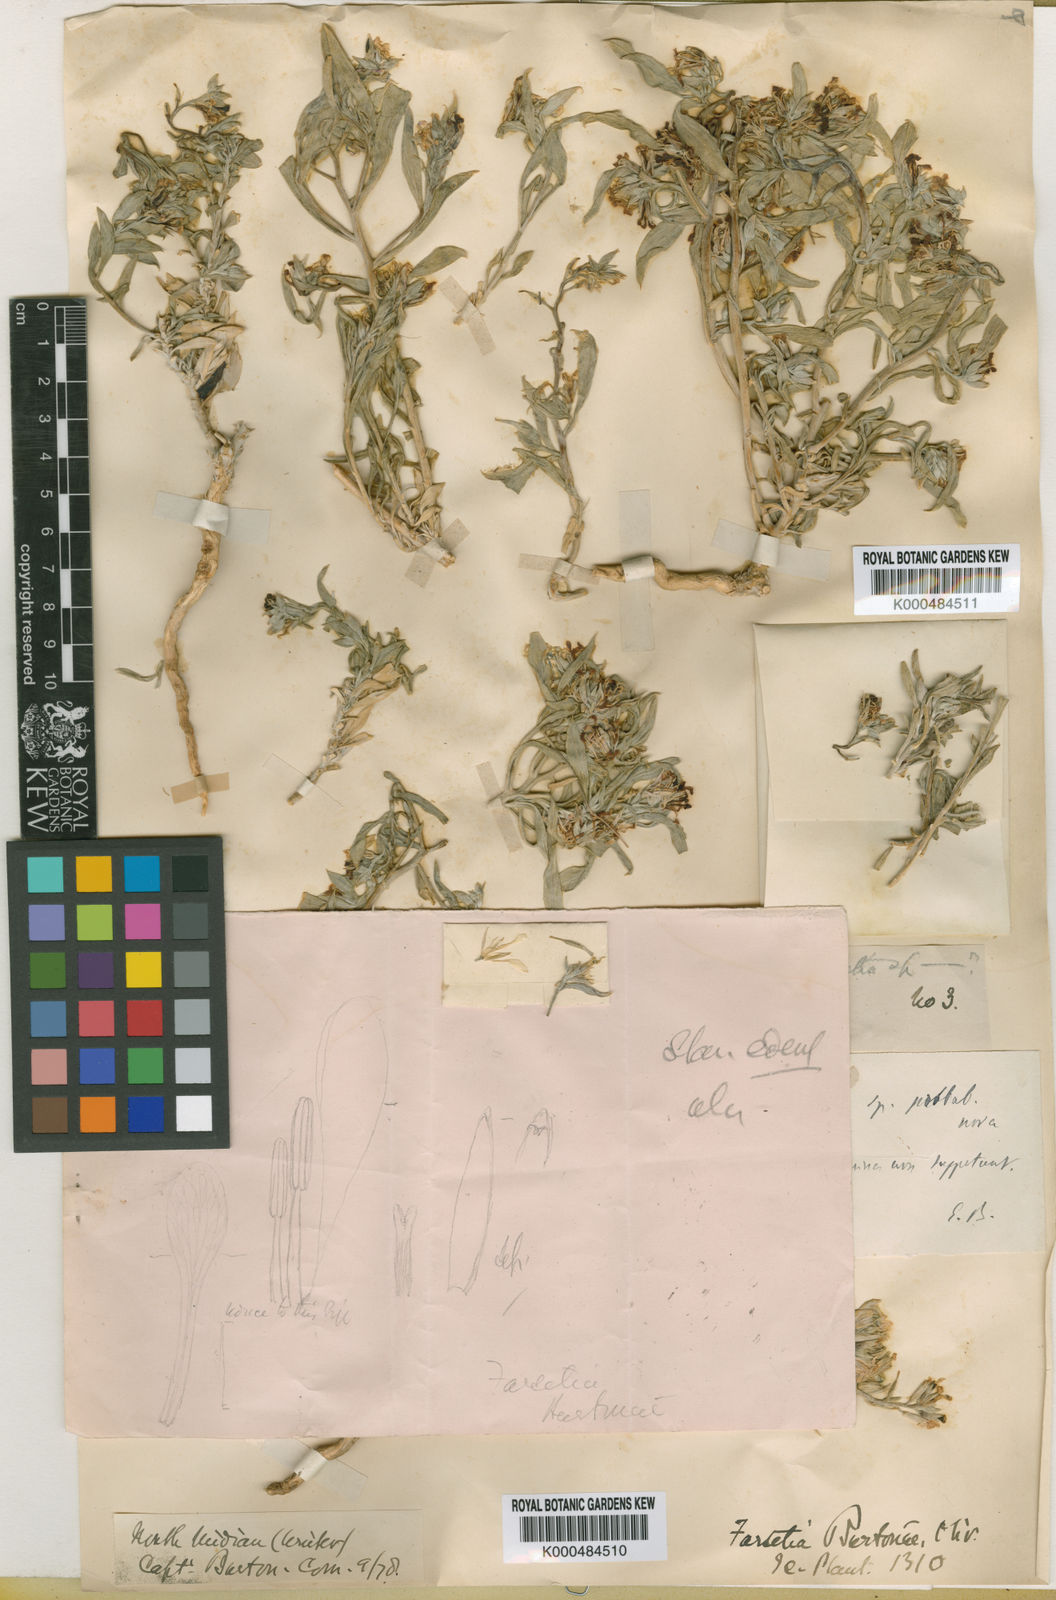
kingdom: Plantae
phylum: Tracheophyta
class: Magnoliopsida
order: Brassicales
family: Brassicaceae
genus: Farsetia
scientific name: Farsetia burtonae
